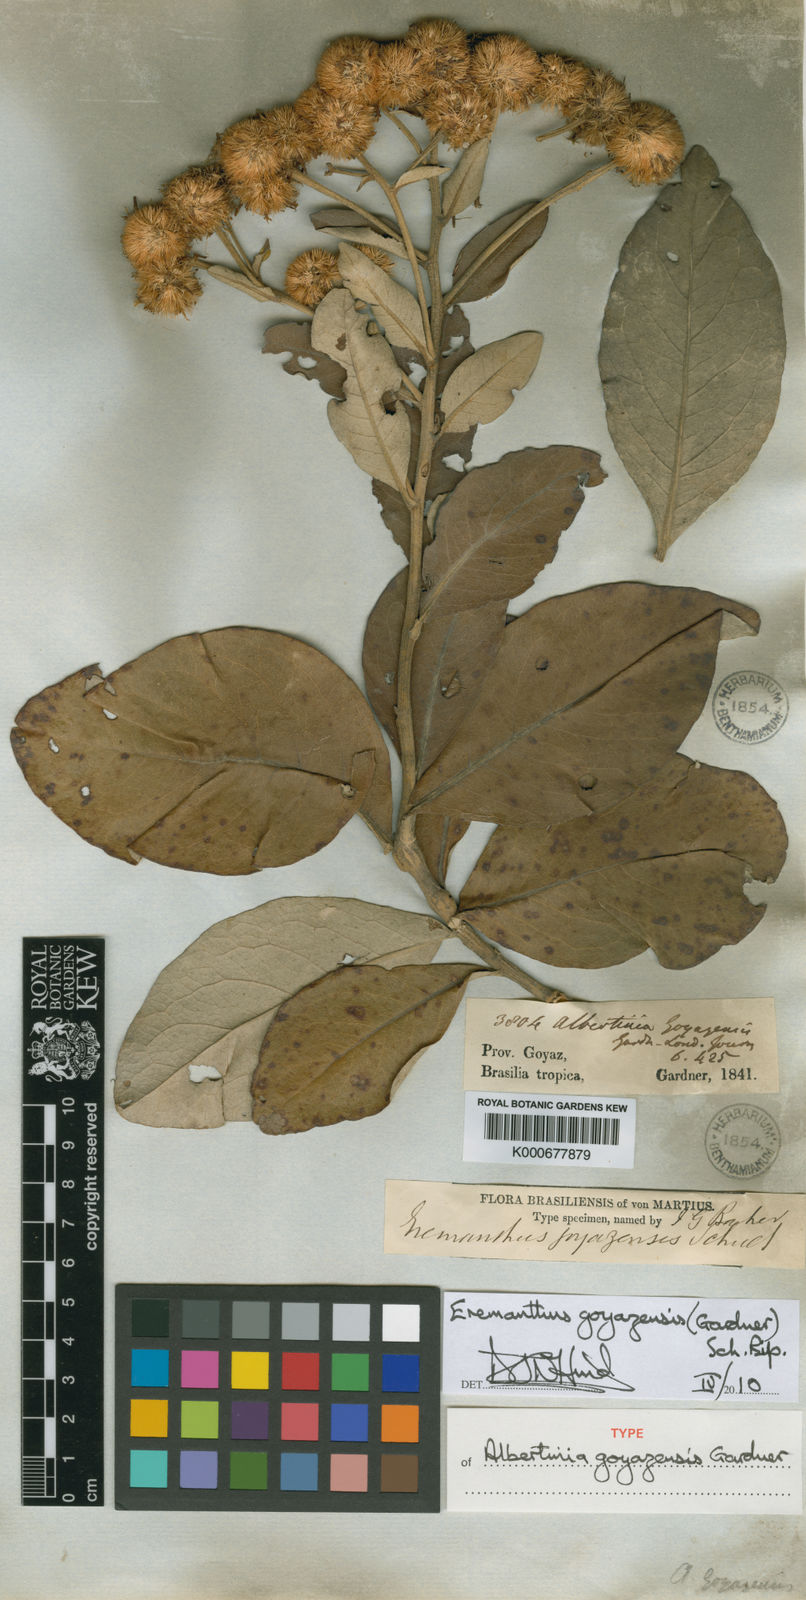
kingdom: Plantae
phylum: Tracheophyta
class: Magnoliopsida
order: Asterales
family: Asteraceae
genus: Eremanthus
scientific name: Eremanthus goyazensis
